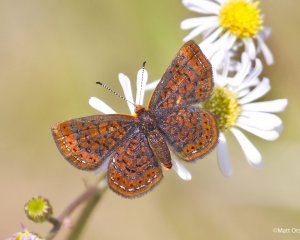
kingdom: Animalia
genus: Calephelis
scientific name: Calephelis virginiensis
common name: Little Metalmark
